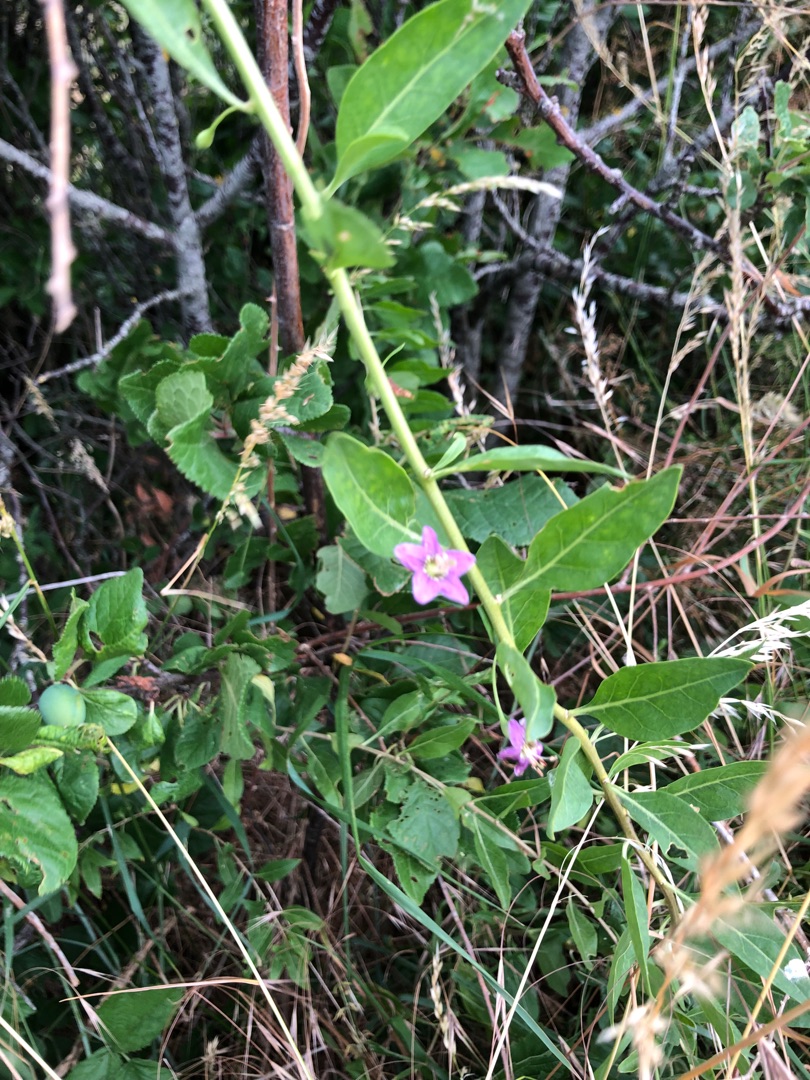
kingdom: Plantae
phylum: Tracheophyta
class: Magnoliopsida
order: Solanales
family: Solanaceae
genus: Lycium
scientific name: Lycium chinense
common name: Bredbladet bukketorn
